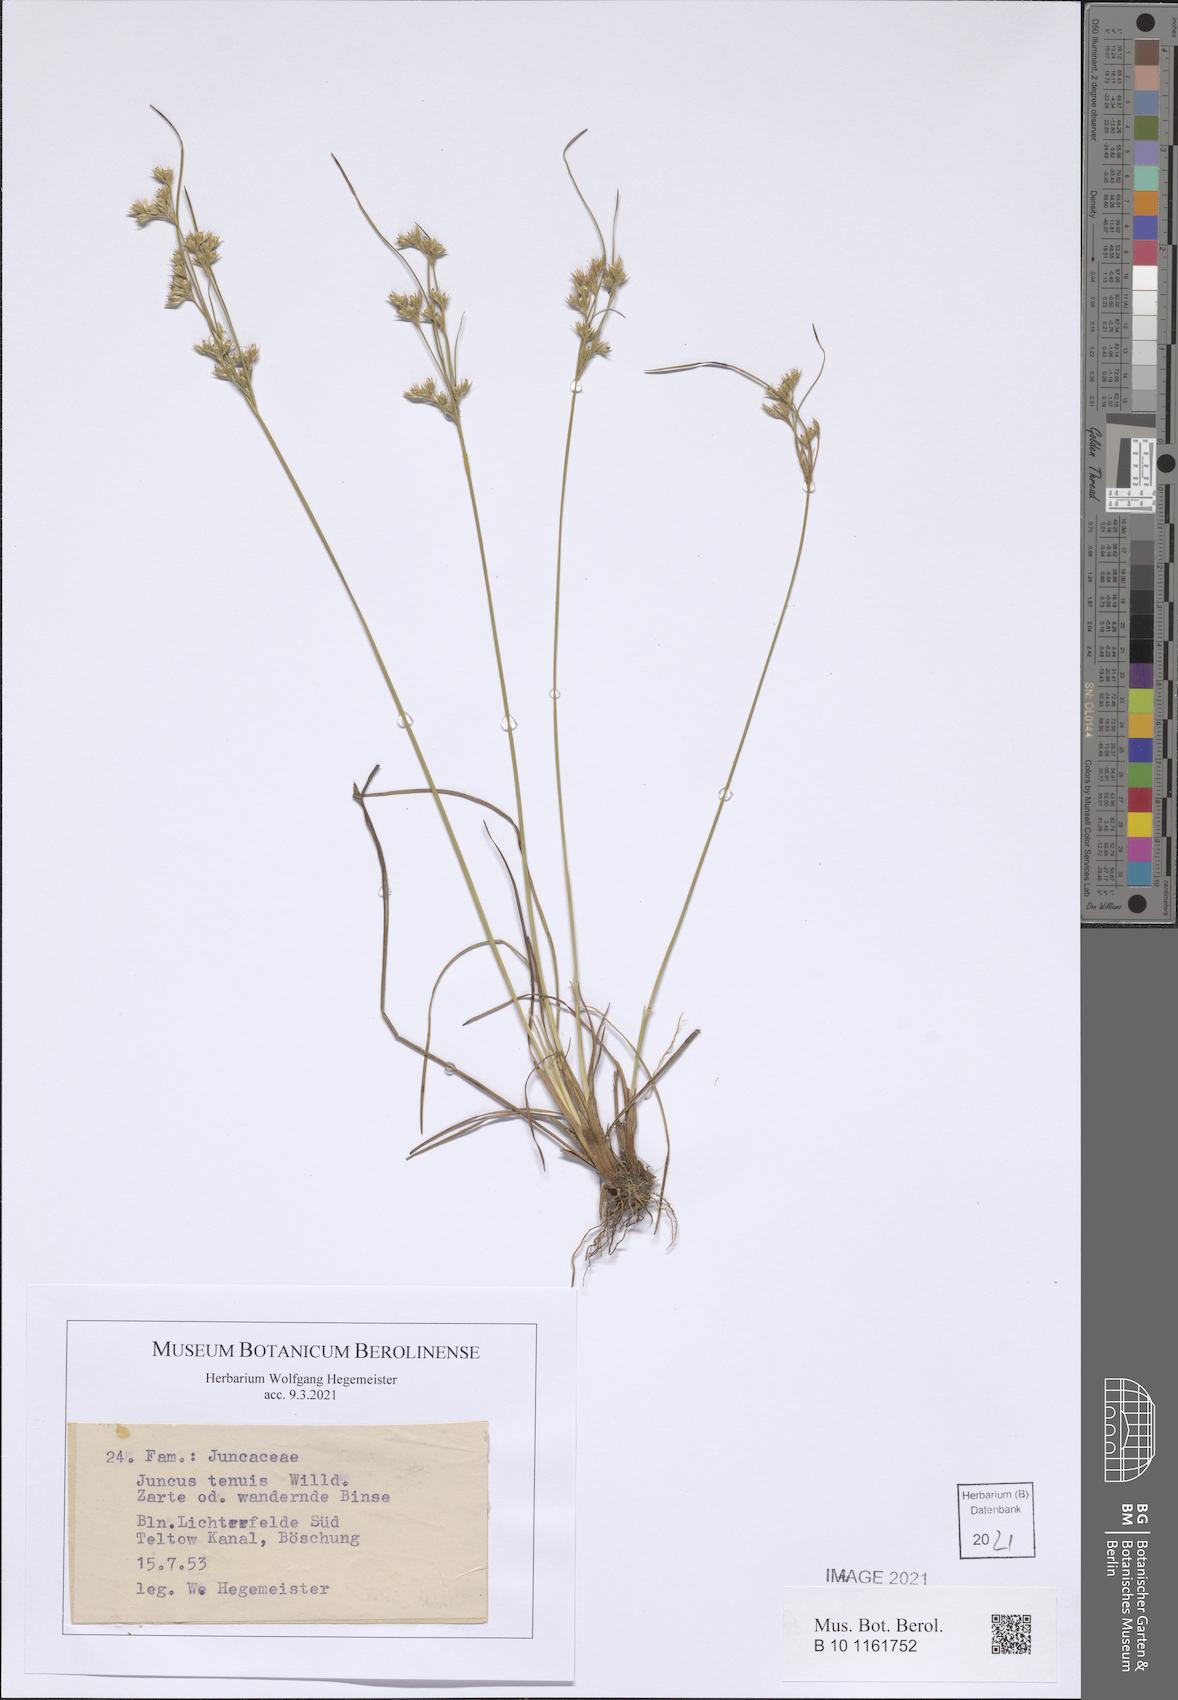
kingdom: Plantae
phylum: Tracheophyta
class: Liliopsida
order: Poales
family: Juncaceae
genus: Juncus
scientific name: Juncus tenuis
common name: Slender rush
